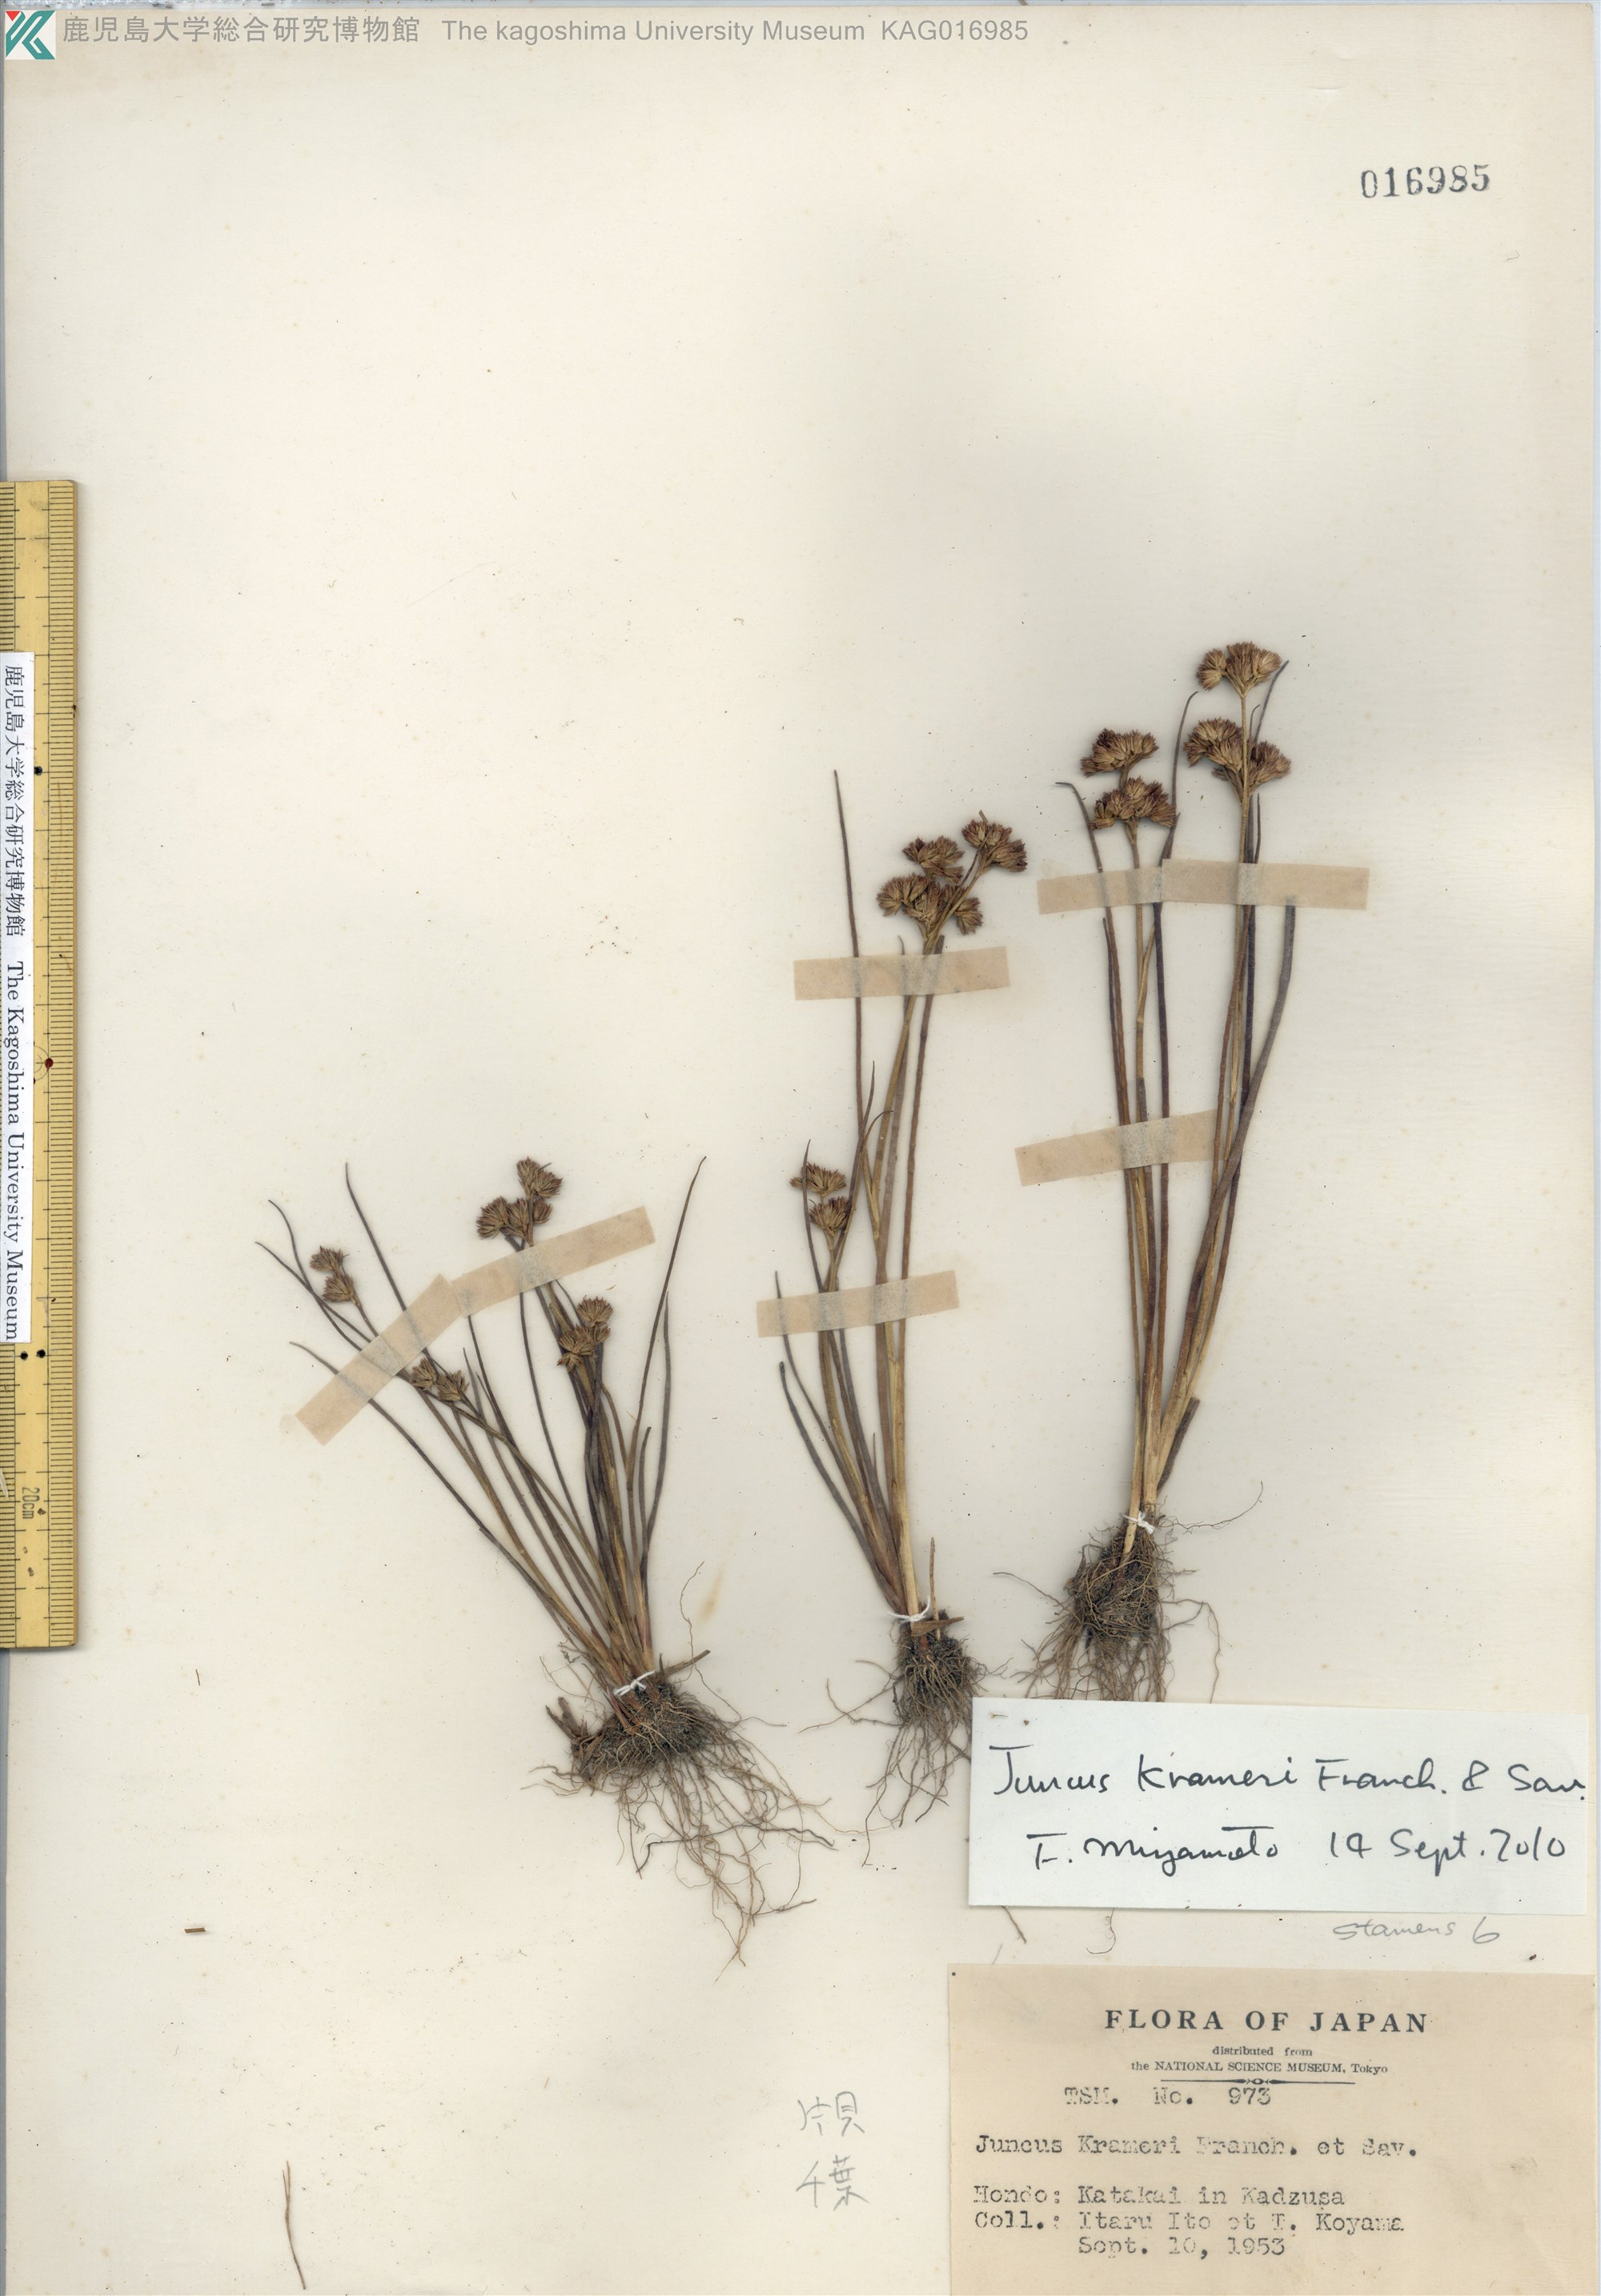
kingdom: Plantae
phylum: Tracheophyta
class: Liliopsida
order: Poales
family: Juncaceae
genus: Juncus
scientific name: Juncus krameri
